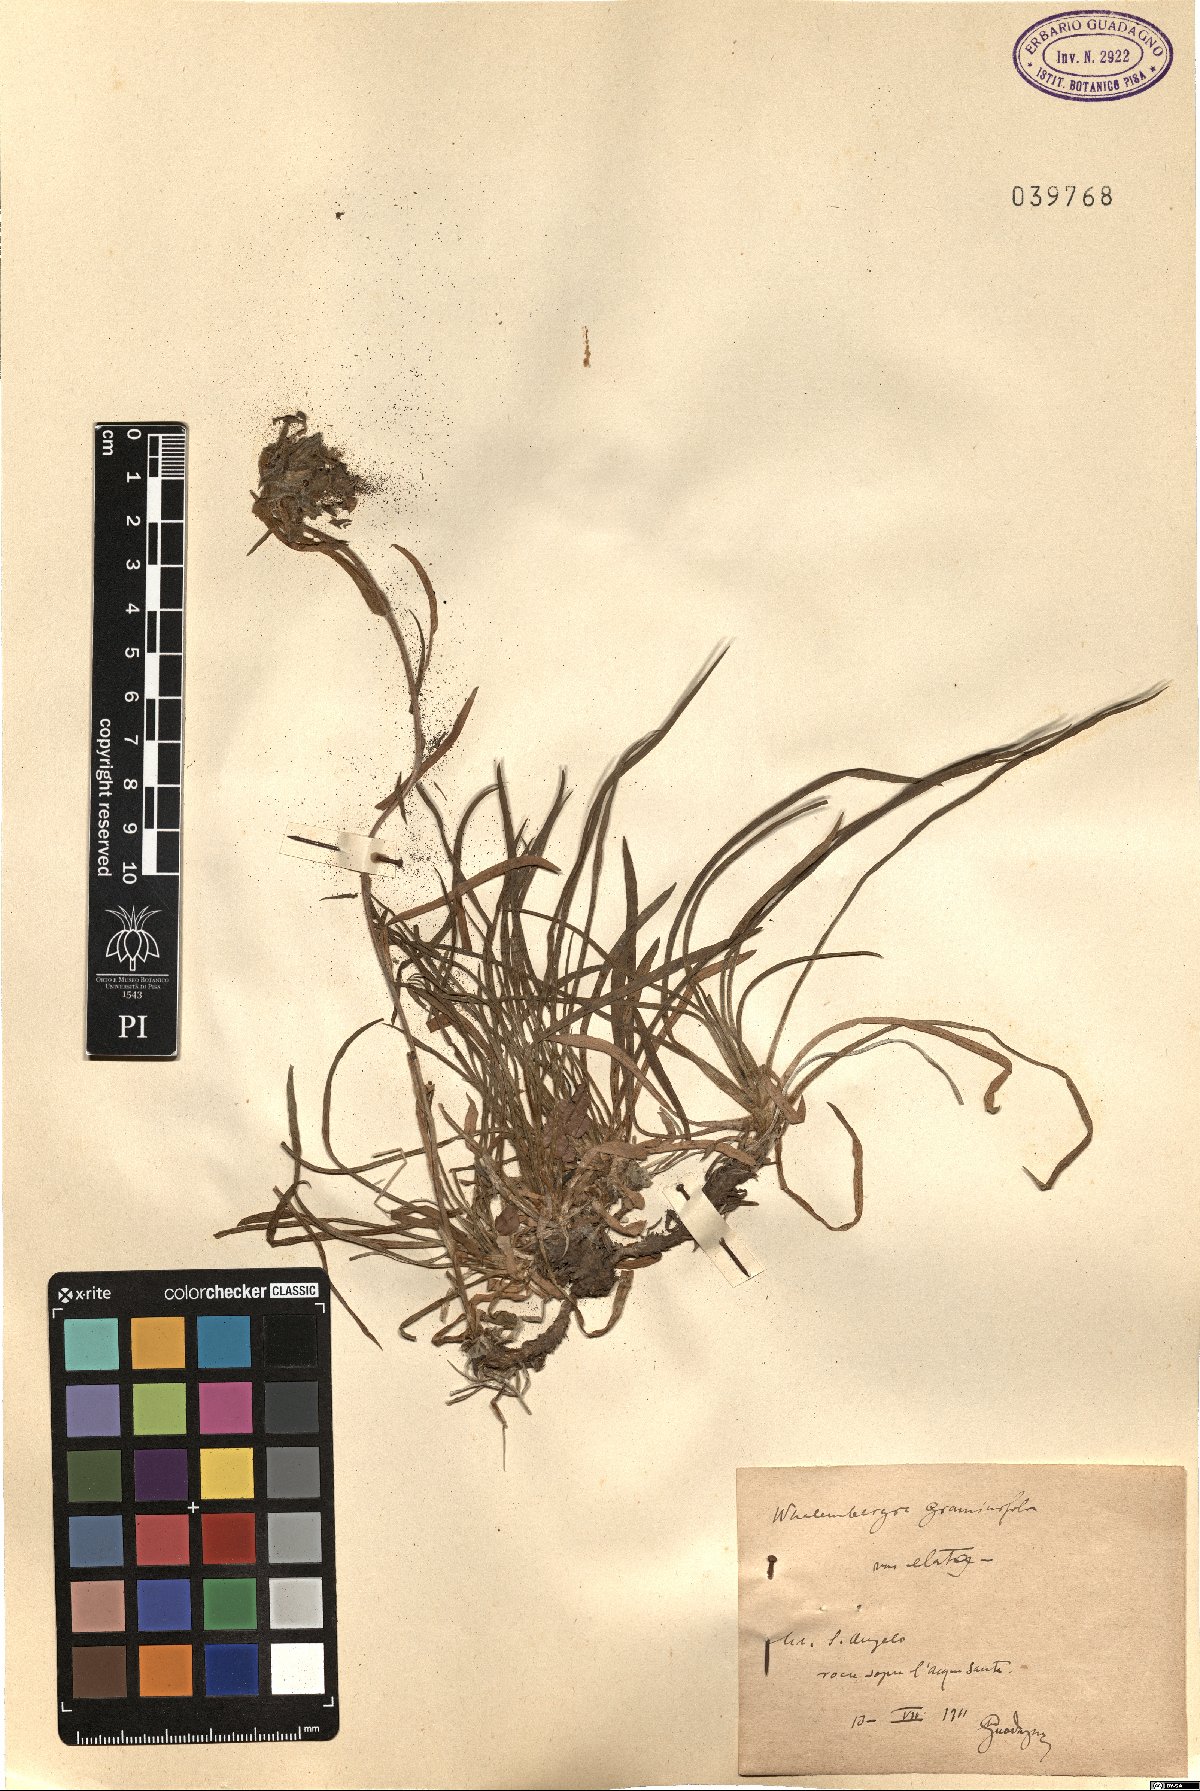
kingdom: Plantae
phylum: Tracheophyta
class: Magnoliopsida
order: Asterales
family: Campanulaceae
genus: Edraianthus
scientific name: Edraianthus graminifolius
